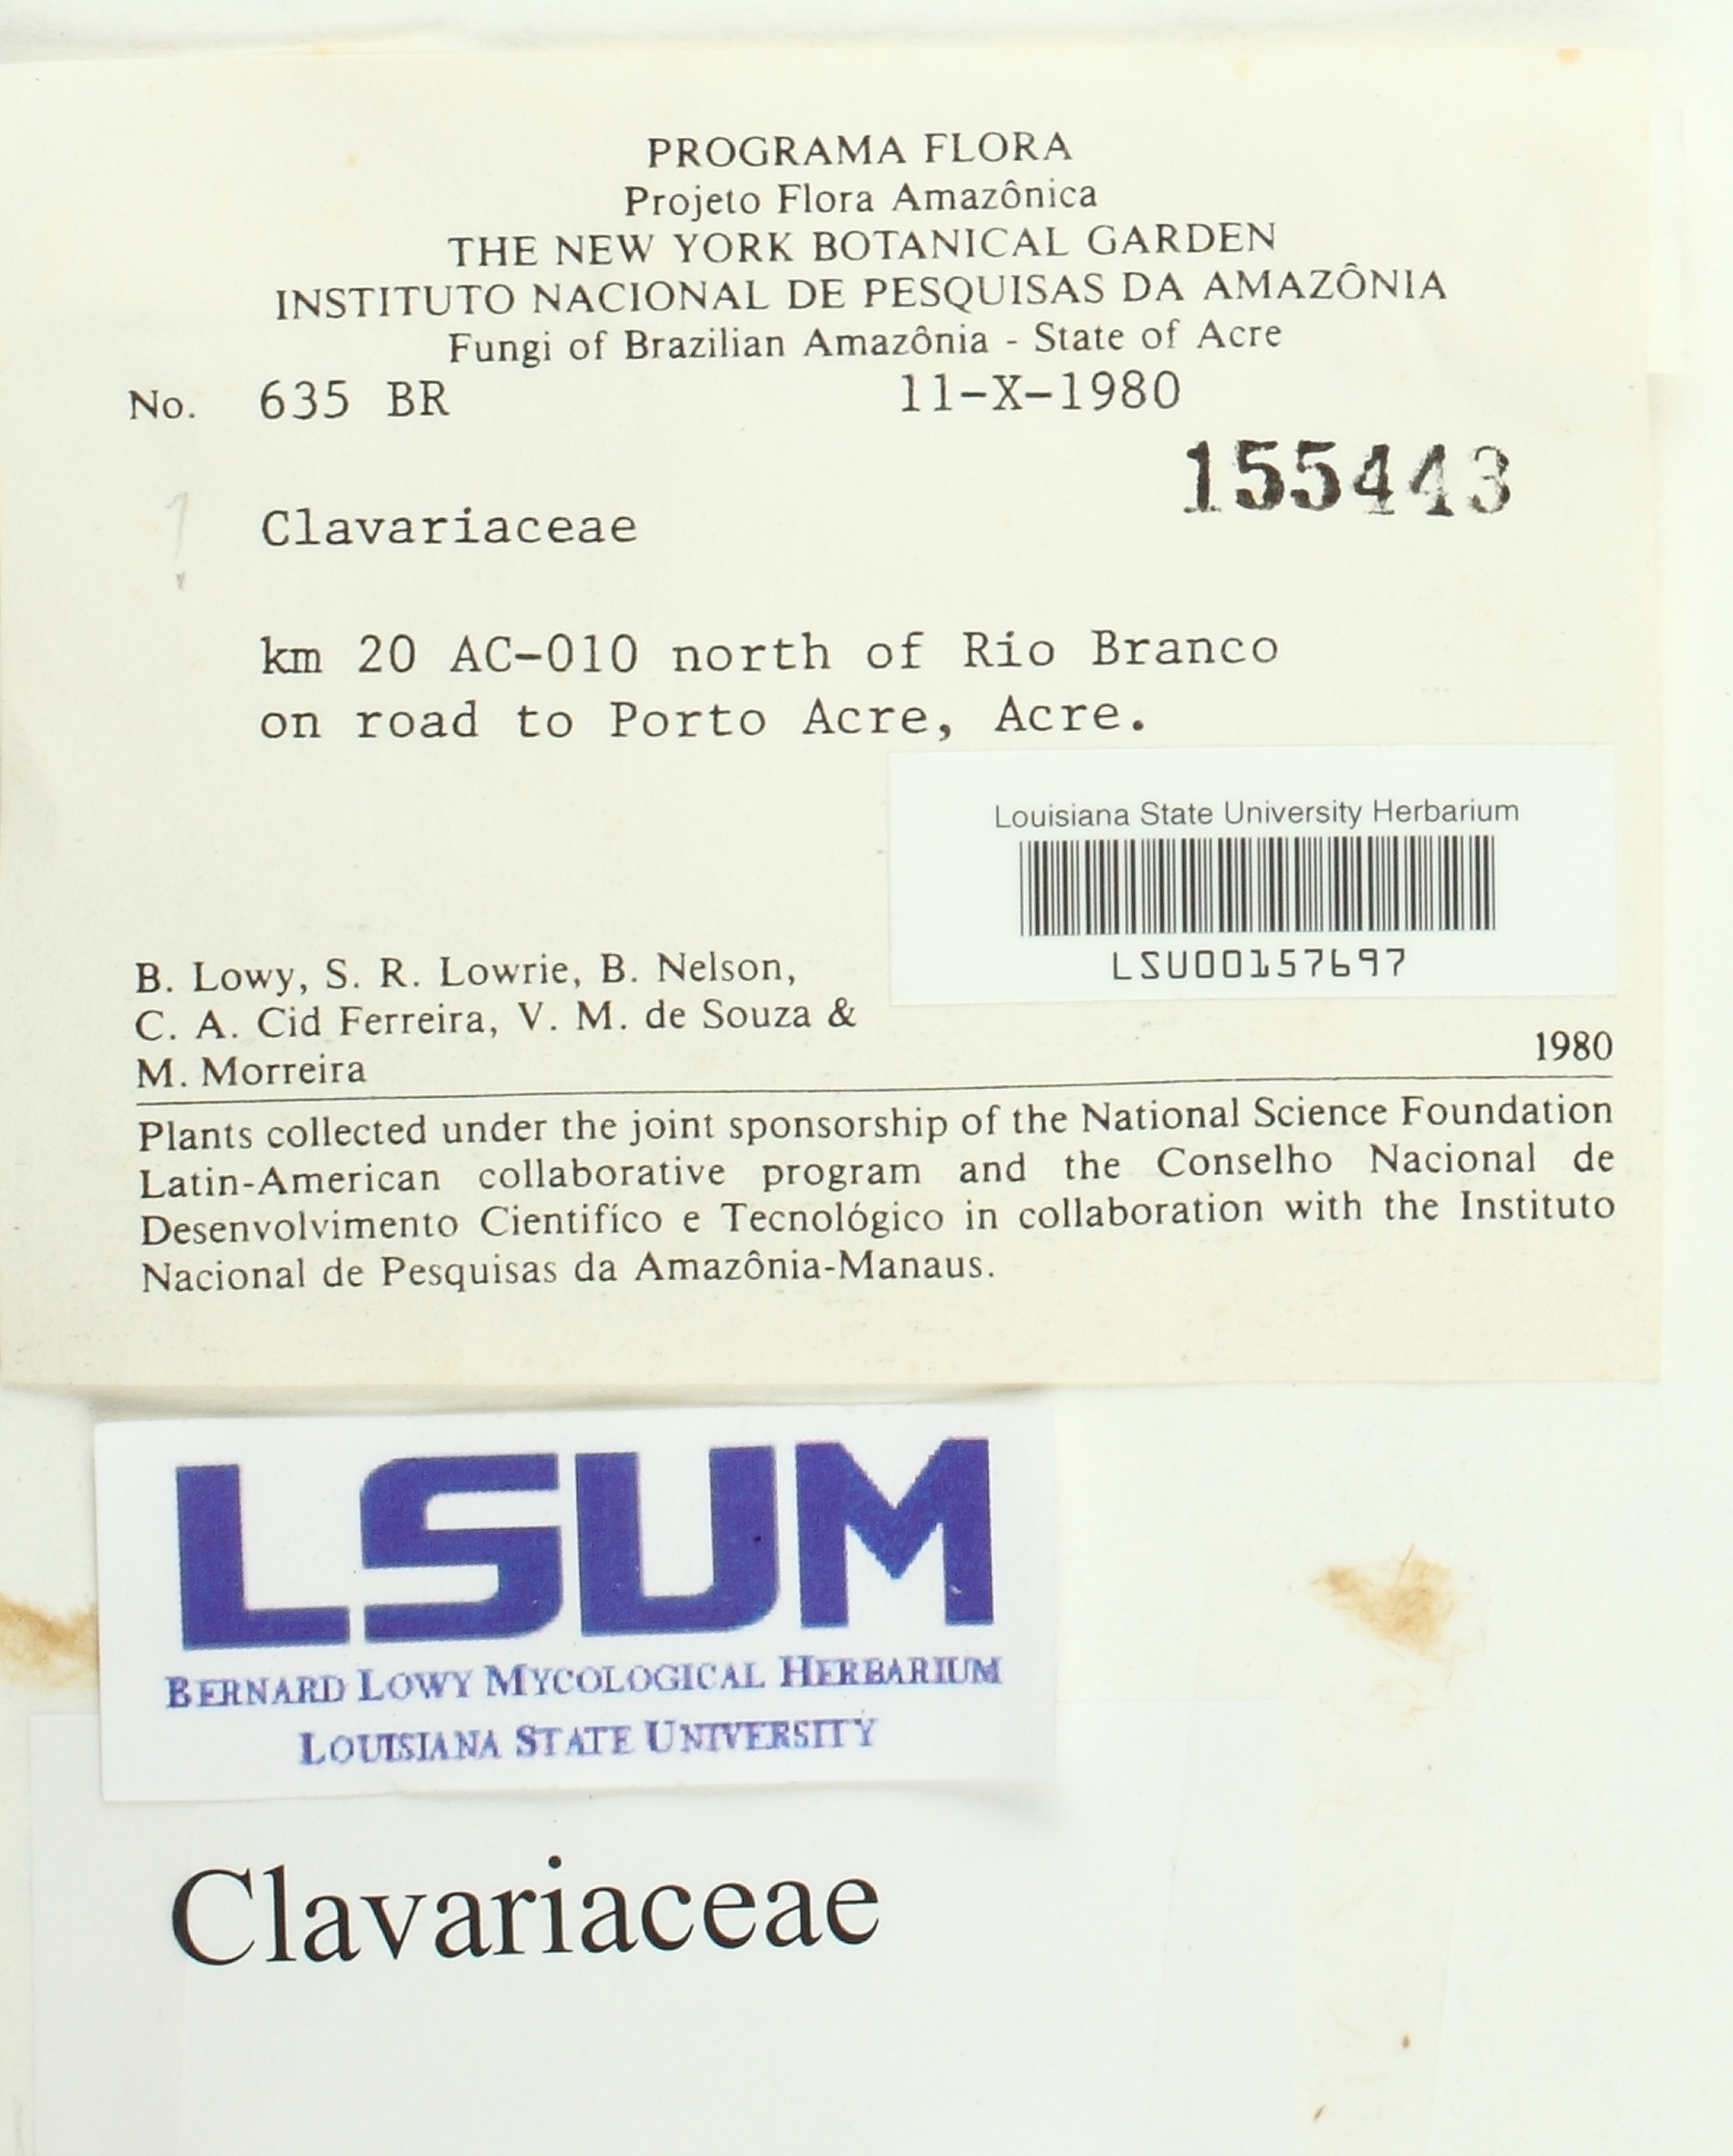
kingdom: Fungi
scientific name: Fungi
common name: Fungi
